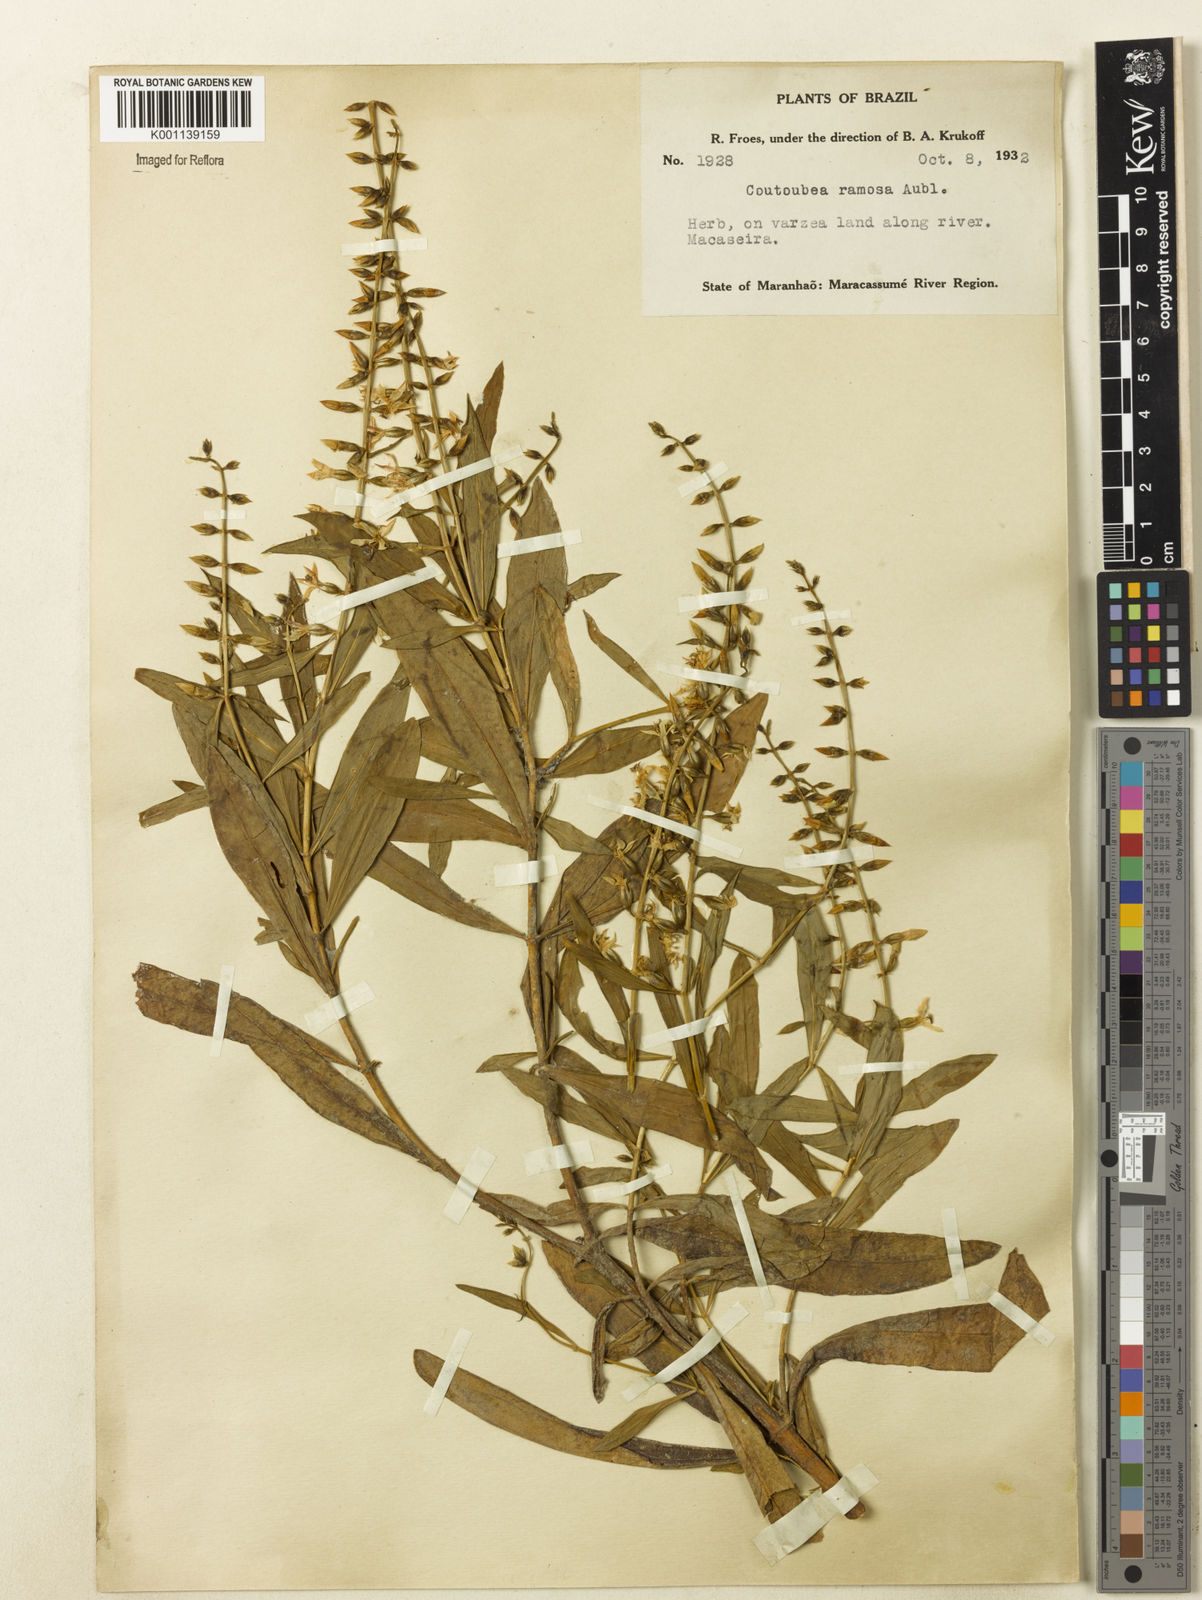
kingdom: Plantae
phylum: Tracheophyta
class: Magnoliopsida
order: Gentianales
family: Gentianaceae
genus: Coutoubea
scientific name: Coutoubea ramosa
